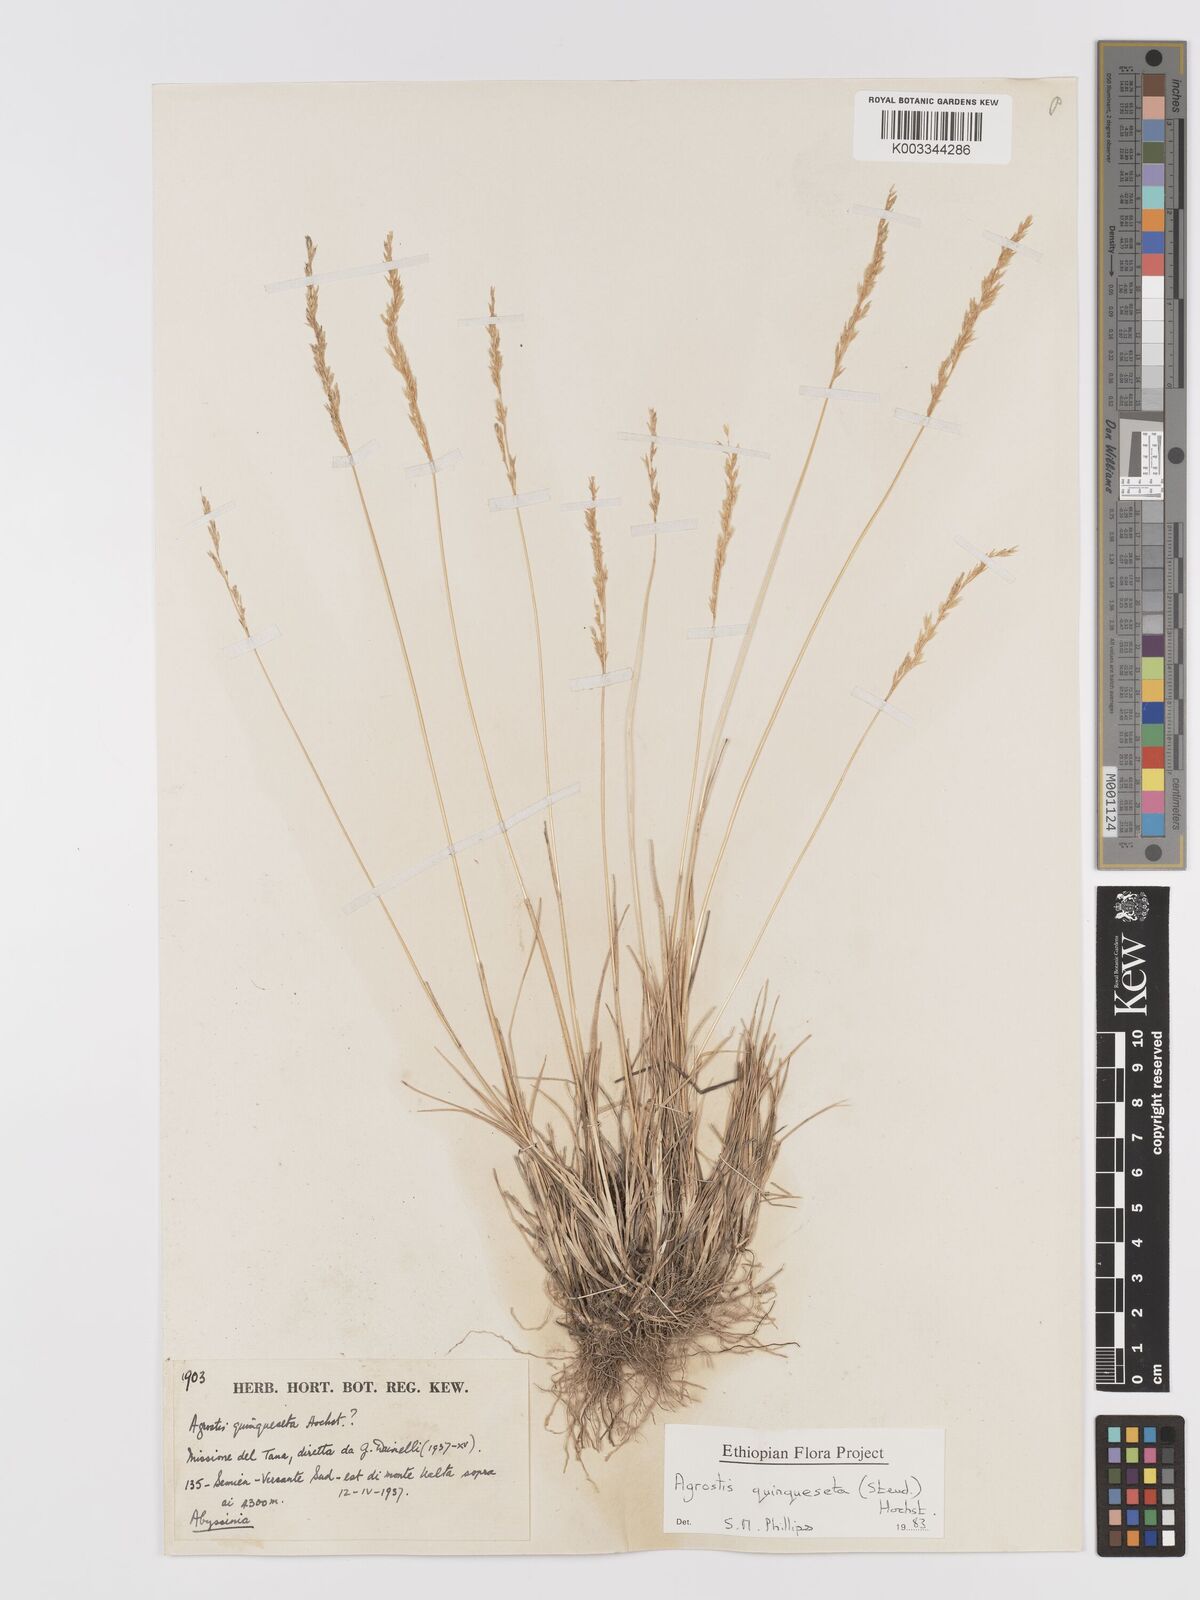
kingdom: Plantae
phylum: Tracheophyta
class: Liliopsida
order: Poales
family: Poaceae
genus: Agrostis
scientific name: Agrostis quinqueseta
